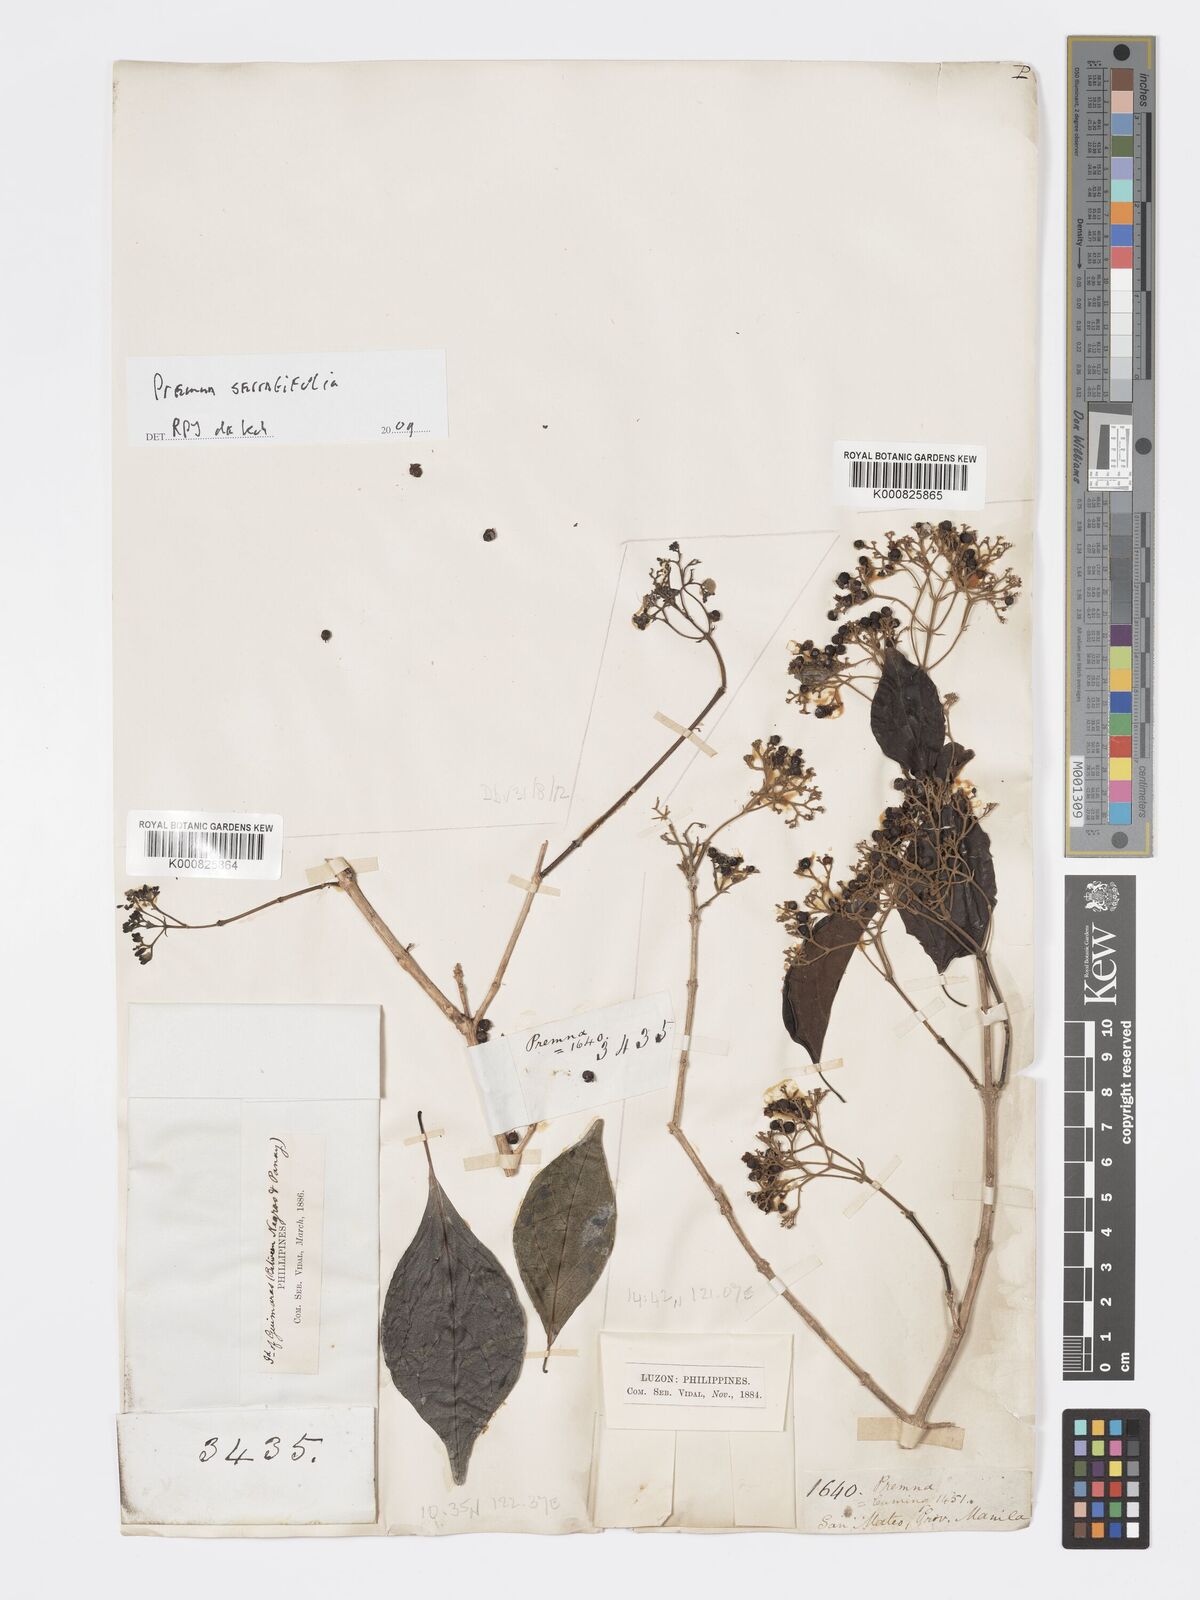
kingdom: Plantae
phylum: Tracheophyta
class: Magnoliopsida
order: Lamiales
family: Lamiaceae
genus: Premna
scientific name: Premna serratifolia
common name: Bastard guelder
